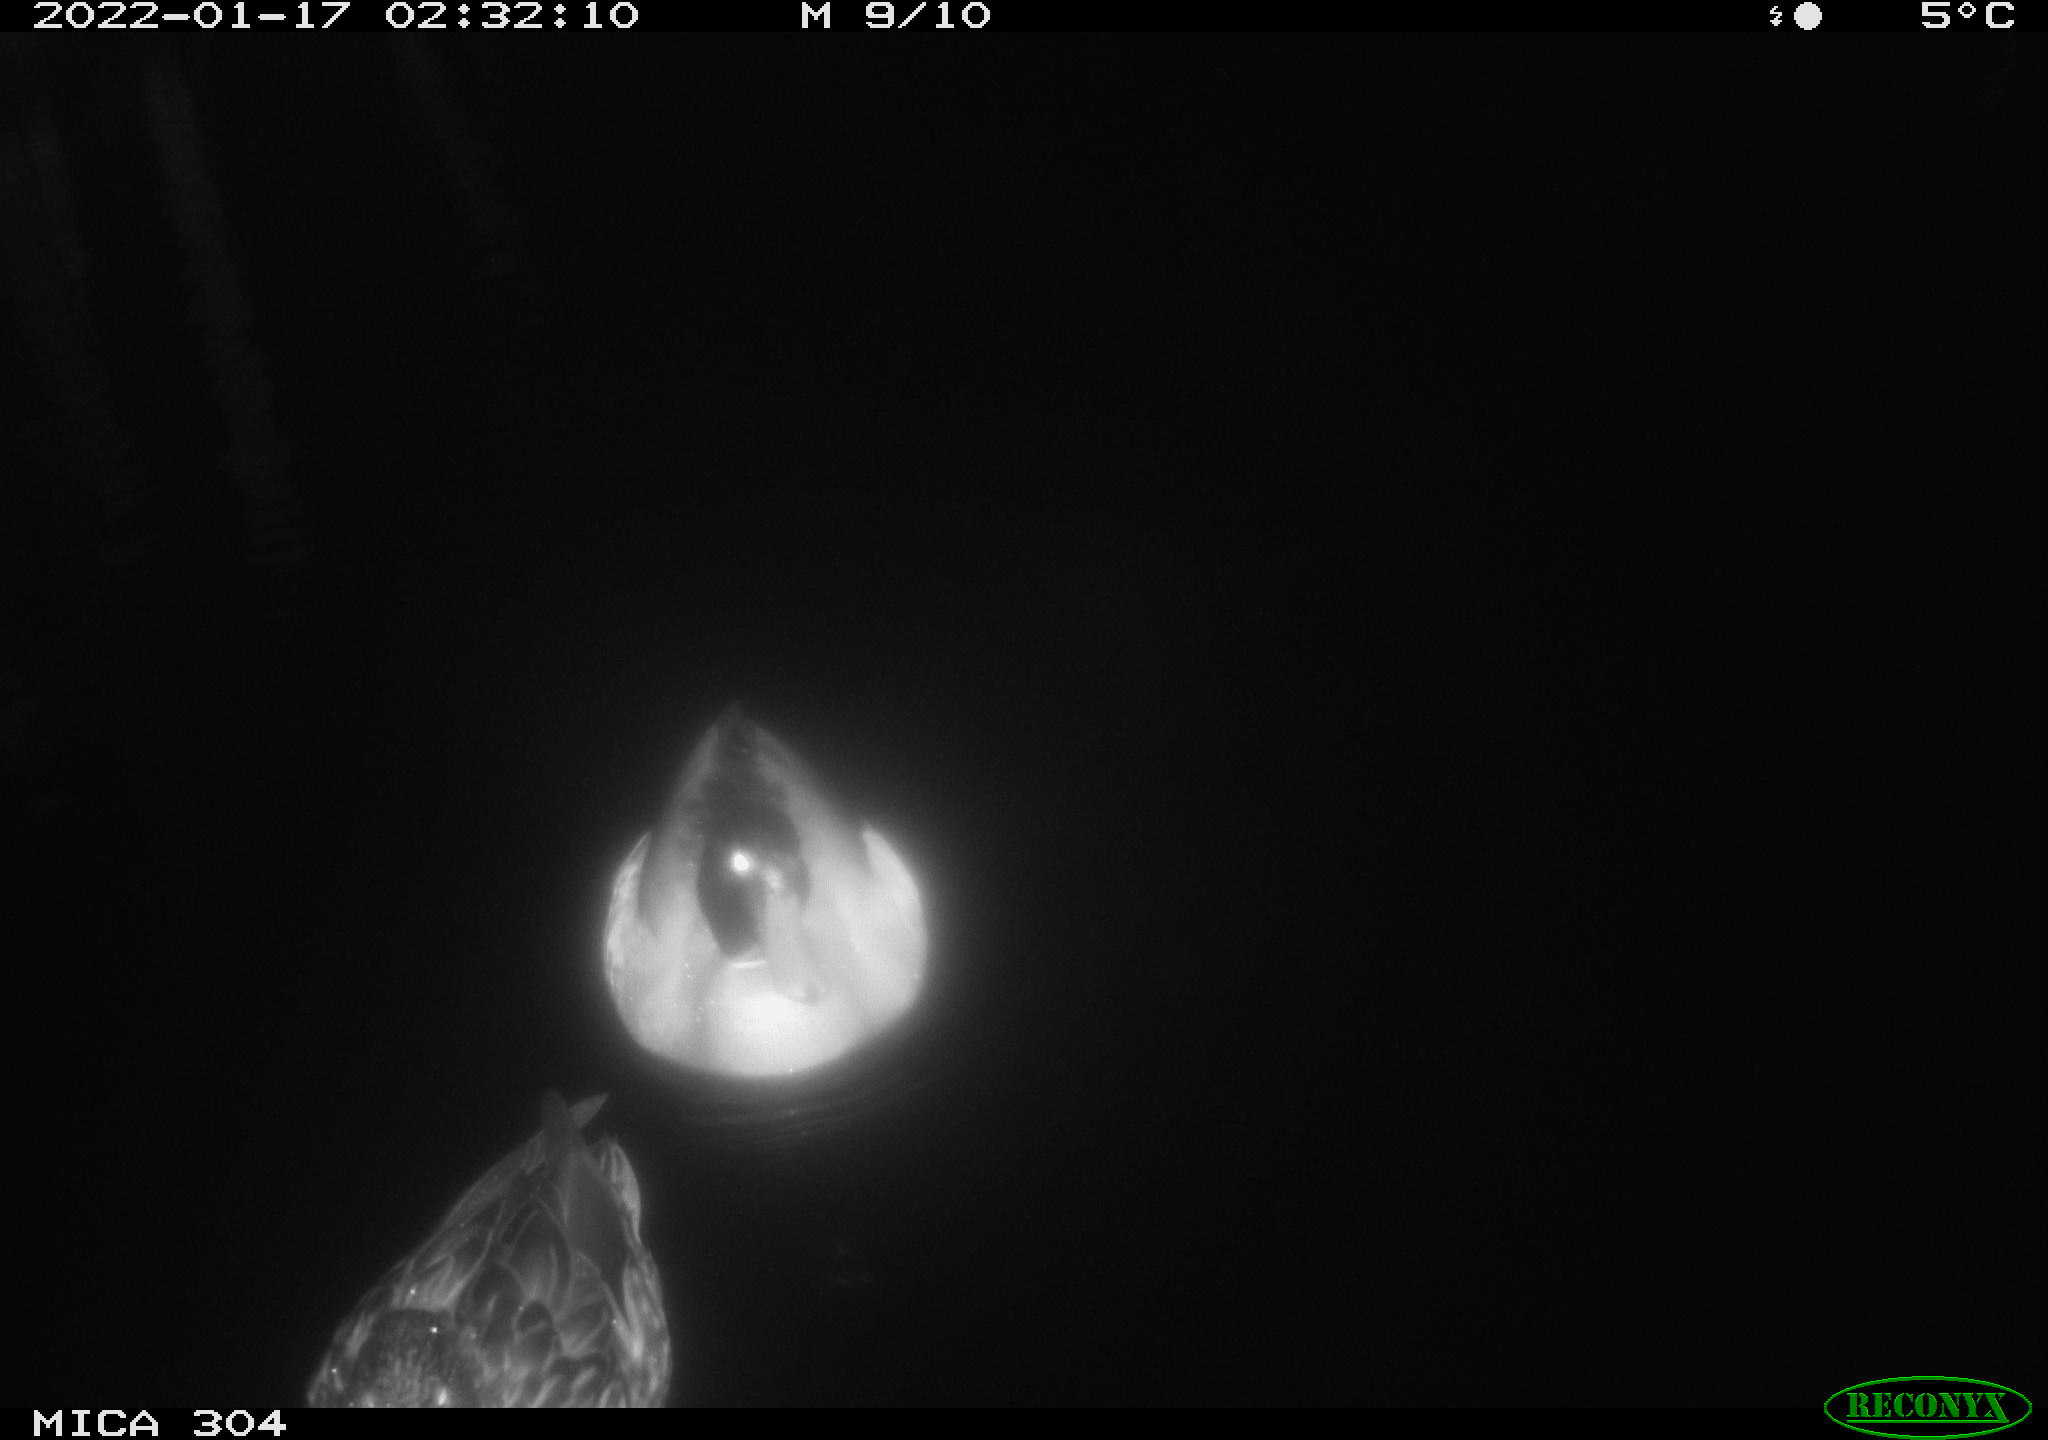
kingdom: Animalia
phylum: Chordata
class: Aves
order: Anseriformes
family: Anatidae
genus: Anas
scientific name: Anas
